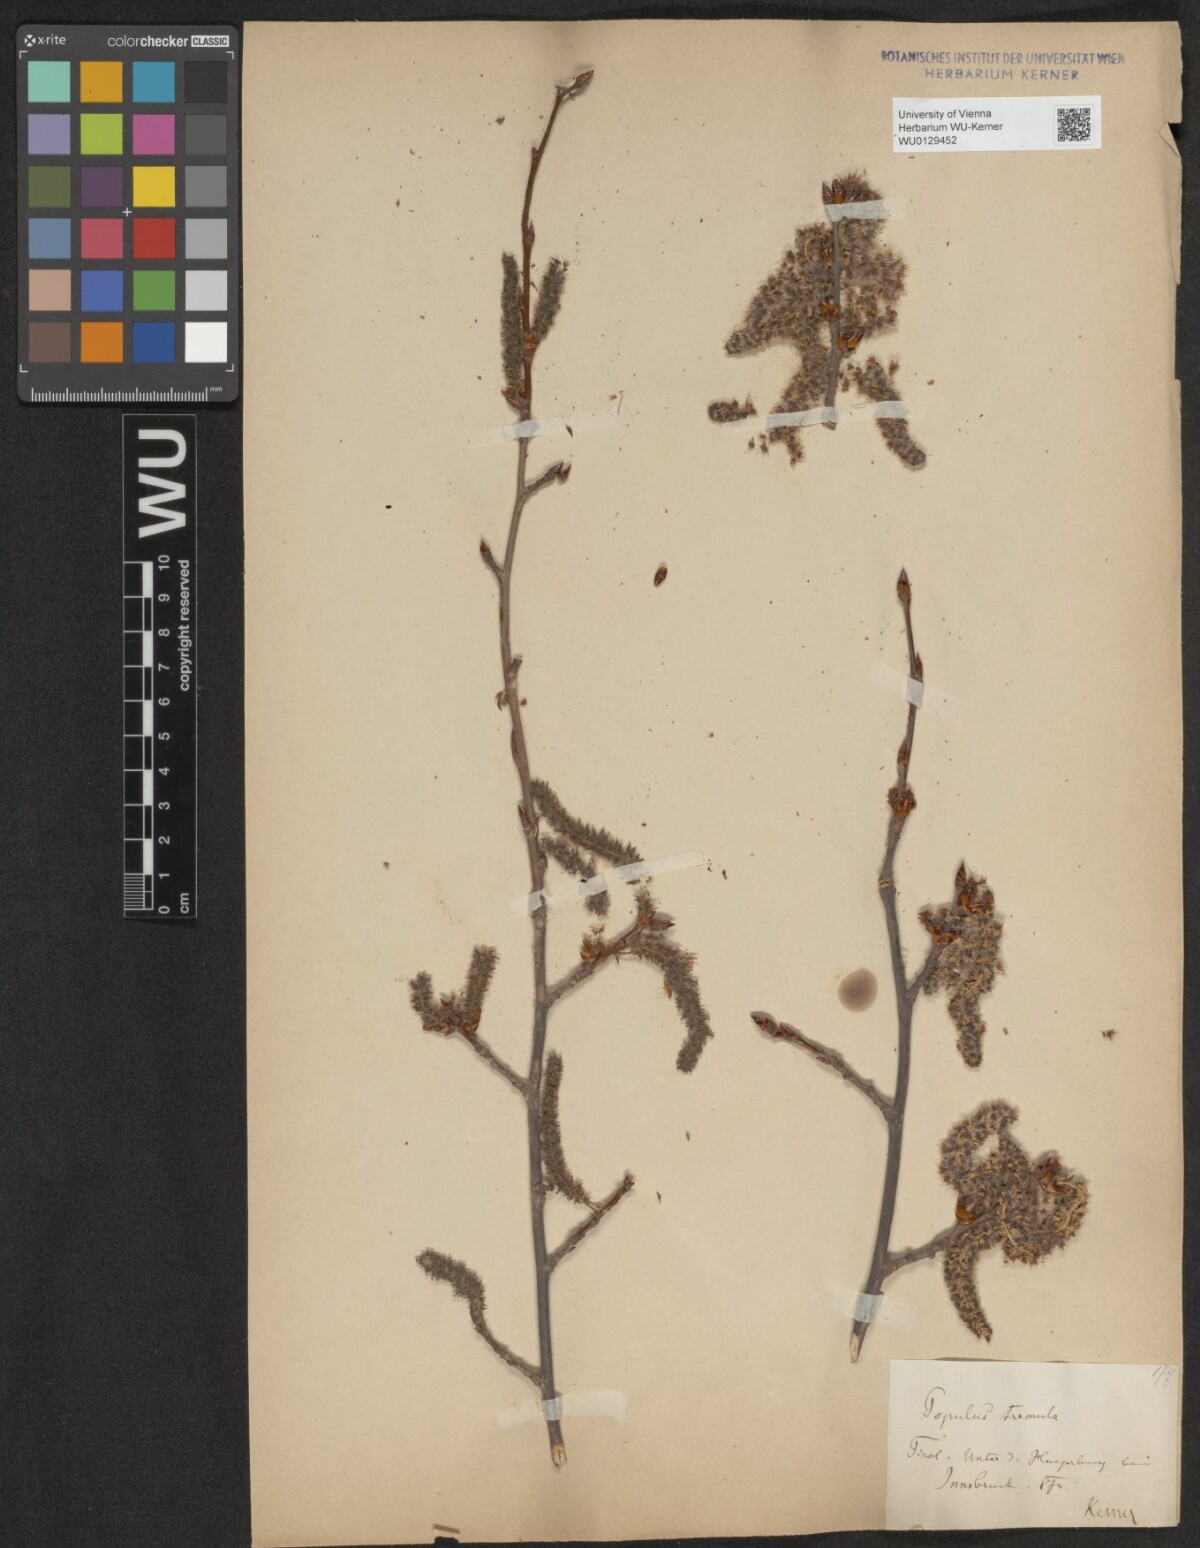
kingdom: Plantae
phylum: Tracheophyta
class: Magnoliopsida
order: Malpighiales
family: Salicaceae
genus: Populus
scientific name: Populus tremula
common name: European aspen
